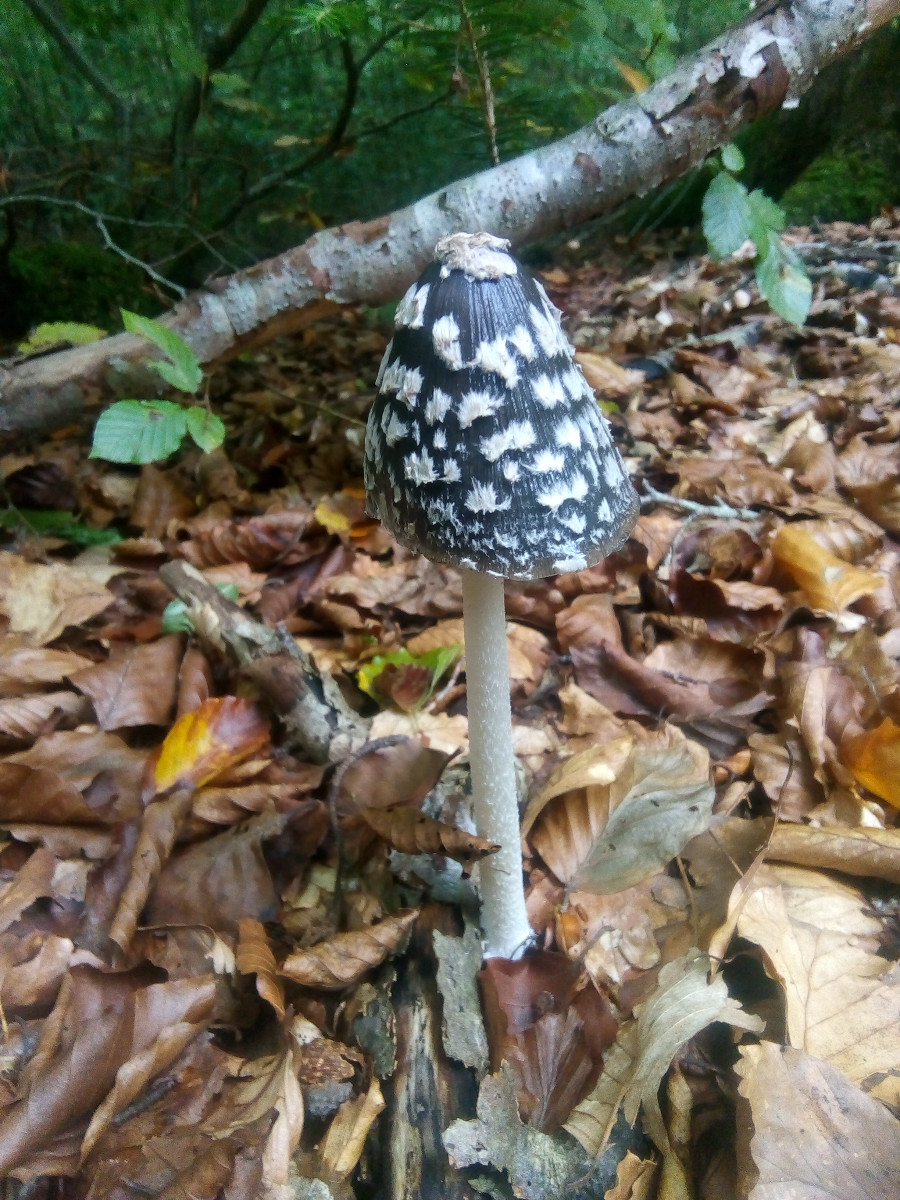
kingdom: Fungi
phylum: Basidiomycota
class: Agaricomycetes
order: Agaricales
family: Psathyrellaceae
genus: Coprinopsis
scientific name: Coprinopsis picacea
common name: skade-blækhat
